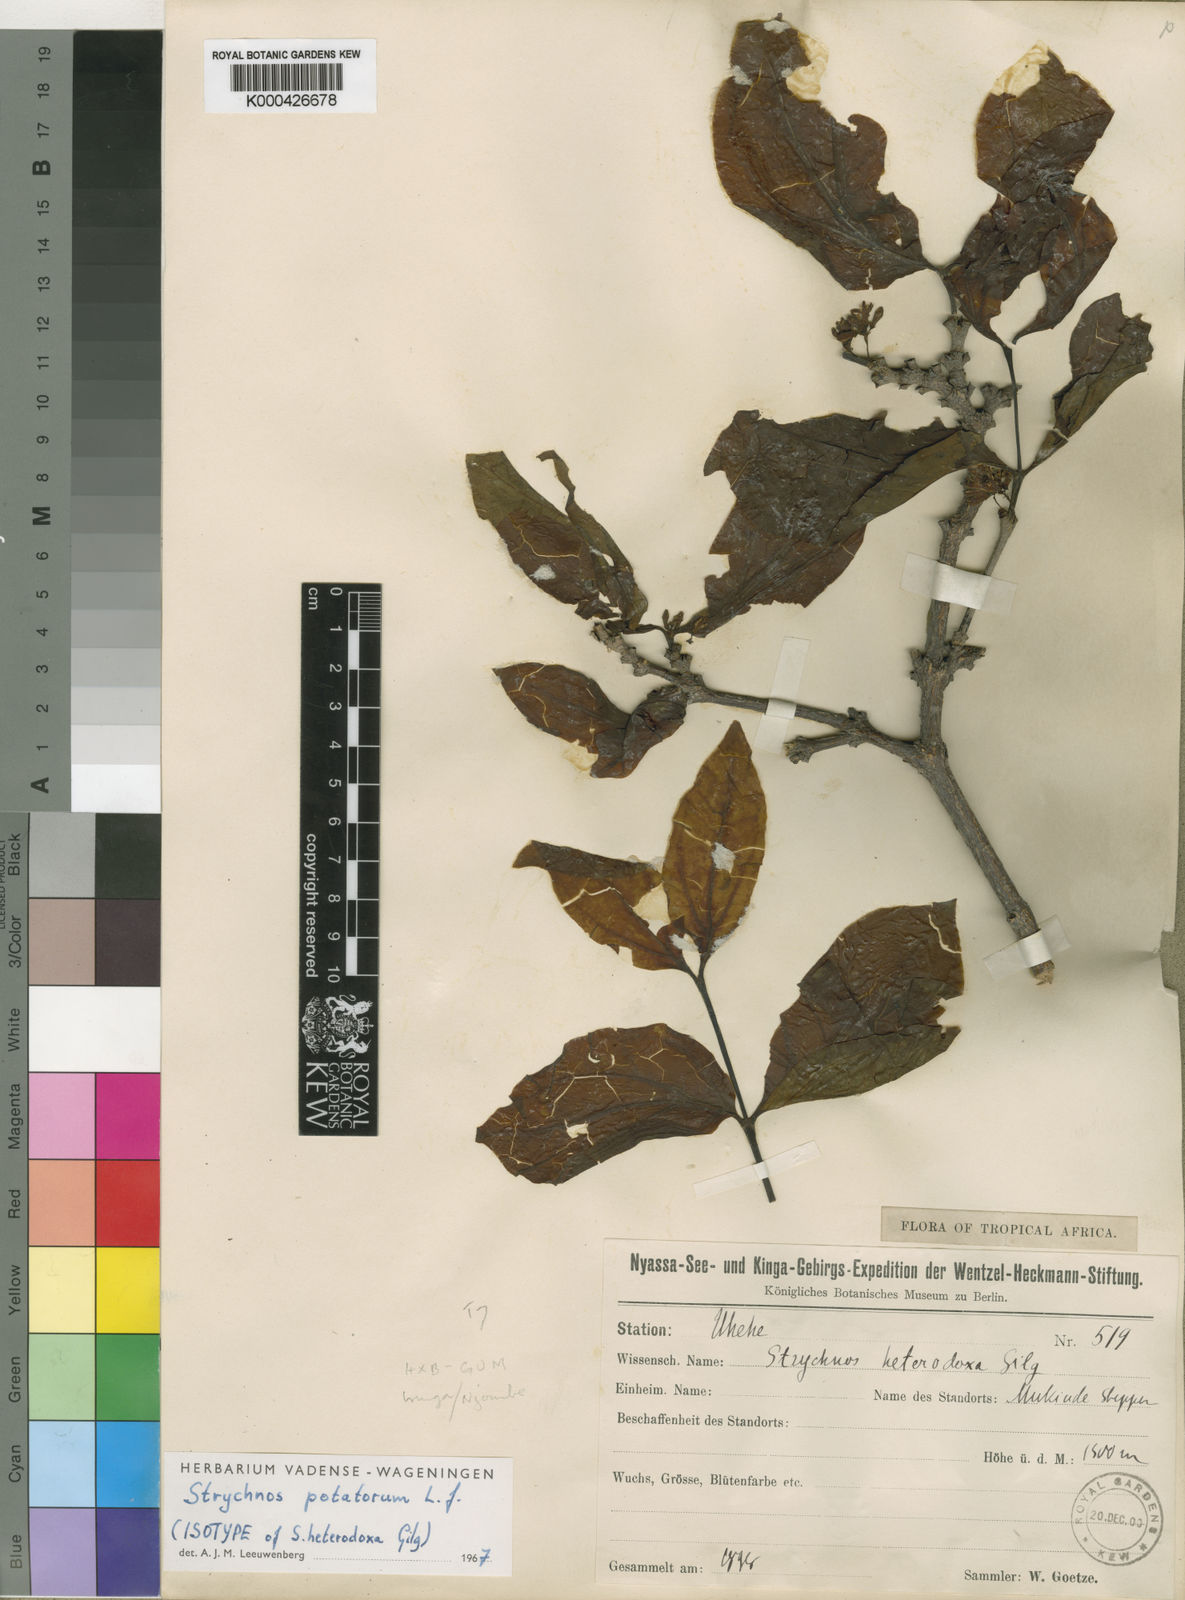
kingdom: Plantae
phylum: Tracheophyta
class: Magnoliopsida
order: Gentianales
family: Loganiaceae
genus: Strychnos
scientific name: Strychnos potatorum
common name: Clearing-nut-tree
